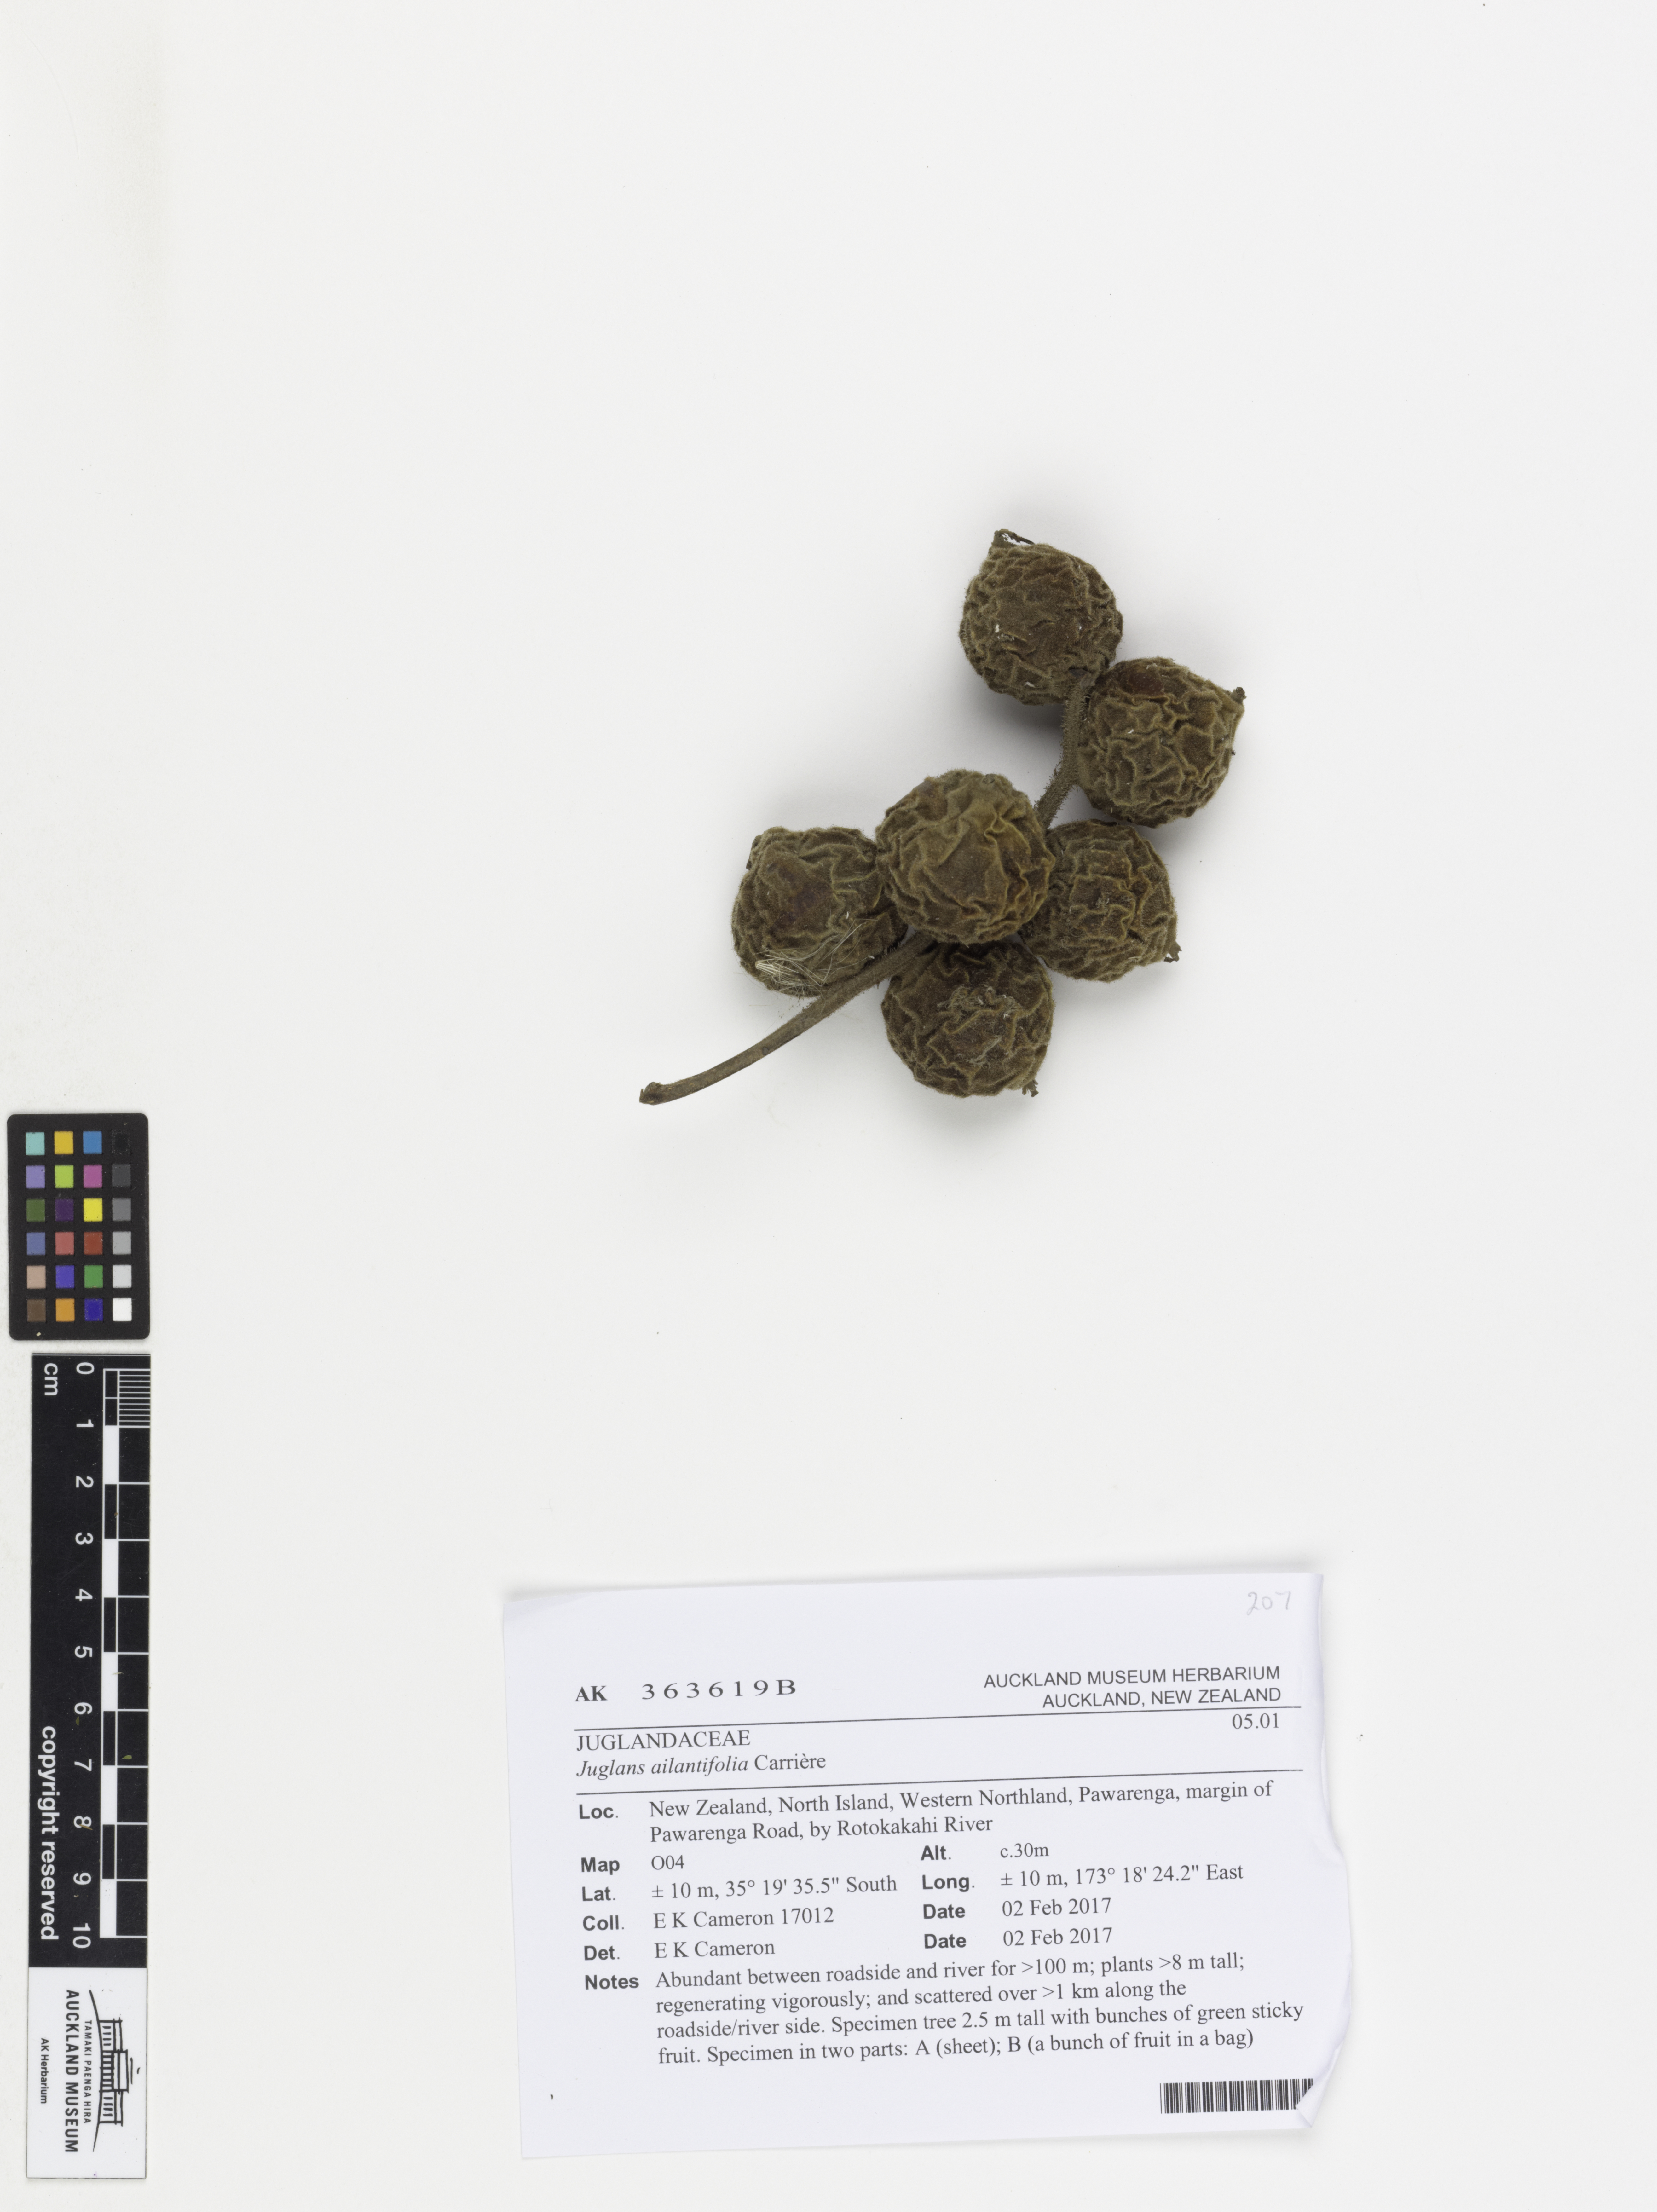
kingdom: Plantae
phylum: Tracheophyta
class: Magnoliopsida
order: Fagales
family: Juglandaceae
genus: Juglans
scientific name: Juglans ailantifolia
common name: Japanese walnut
